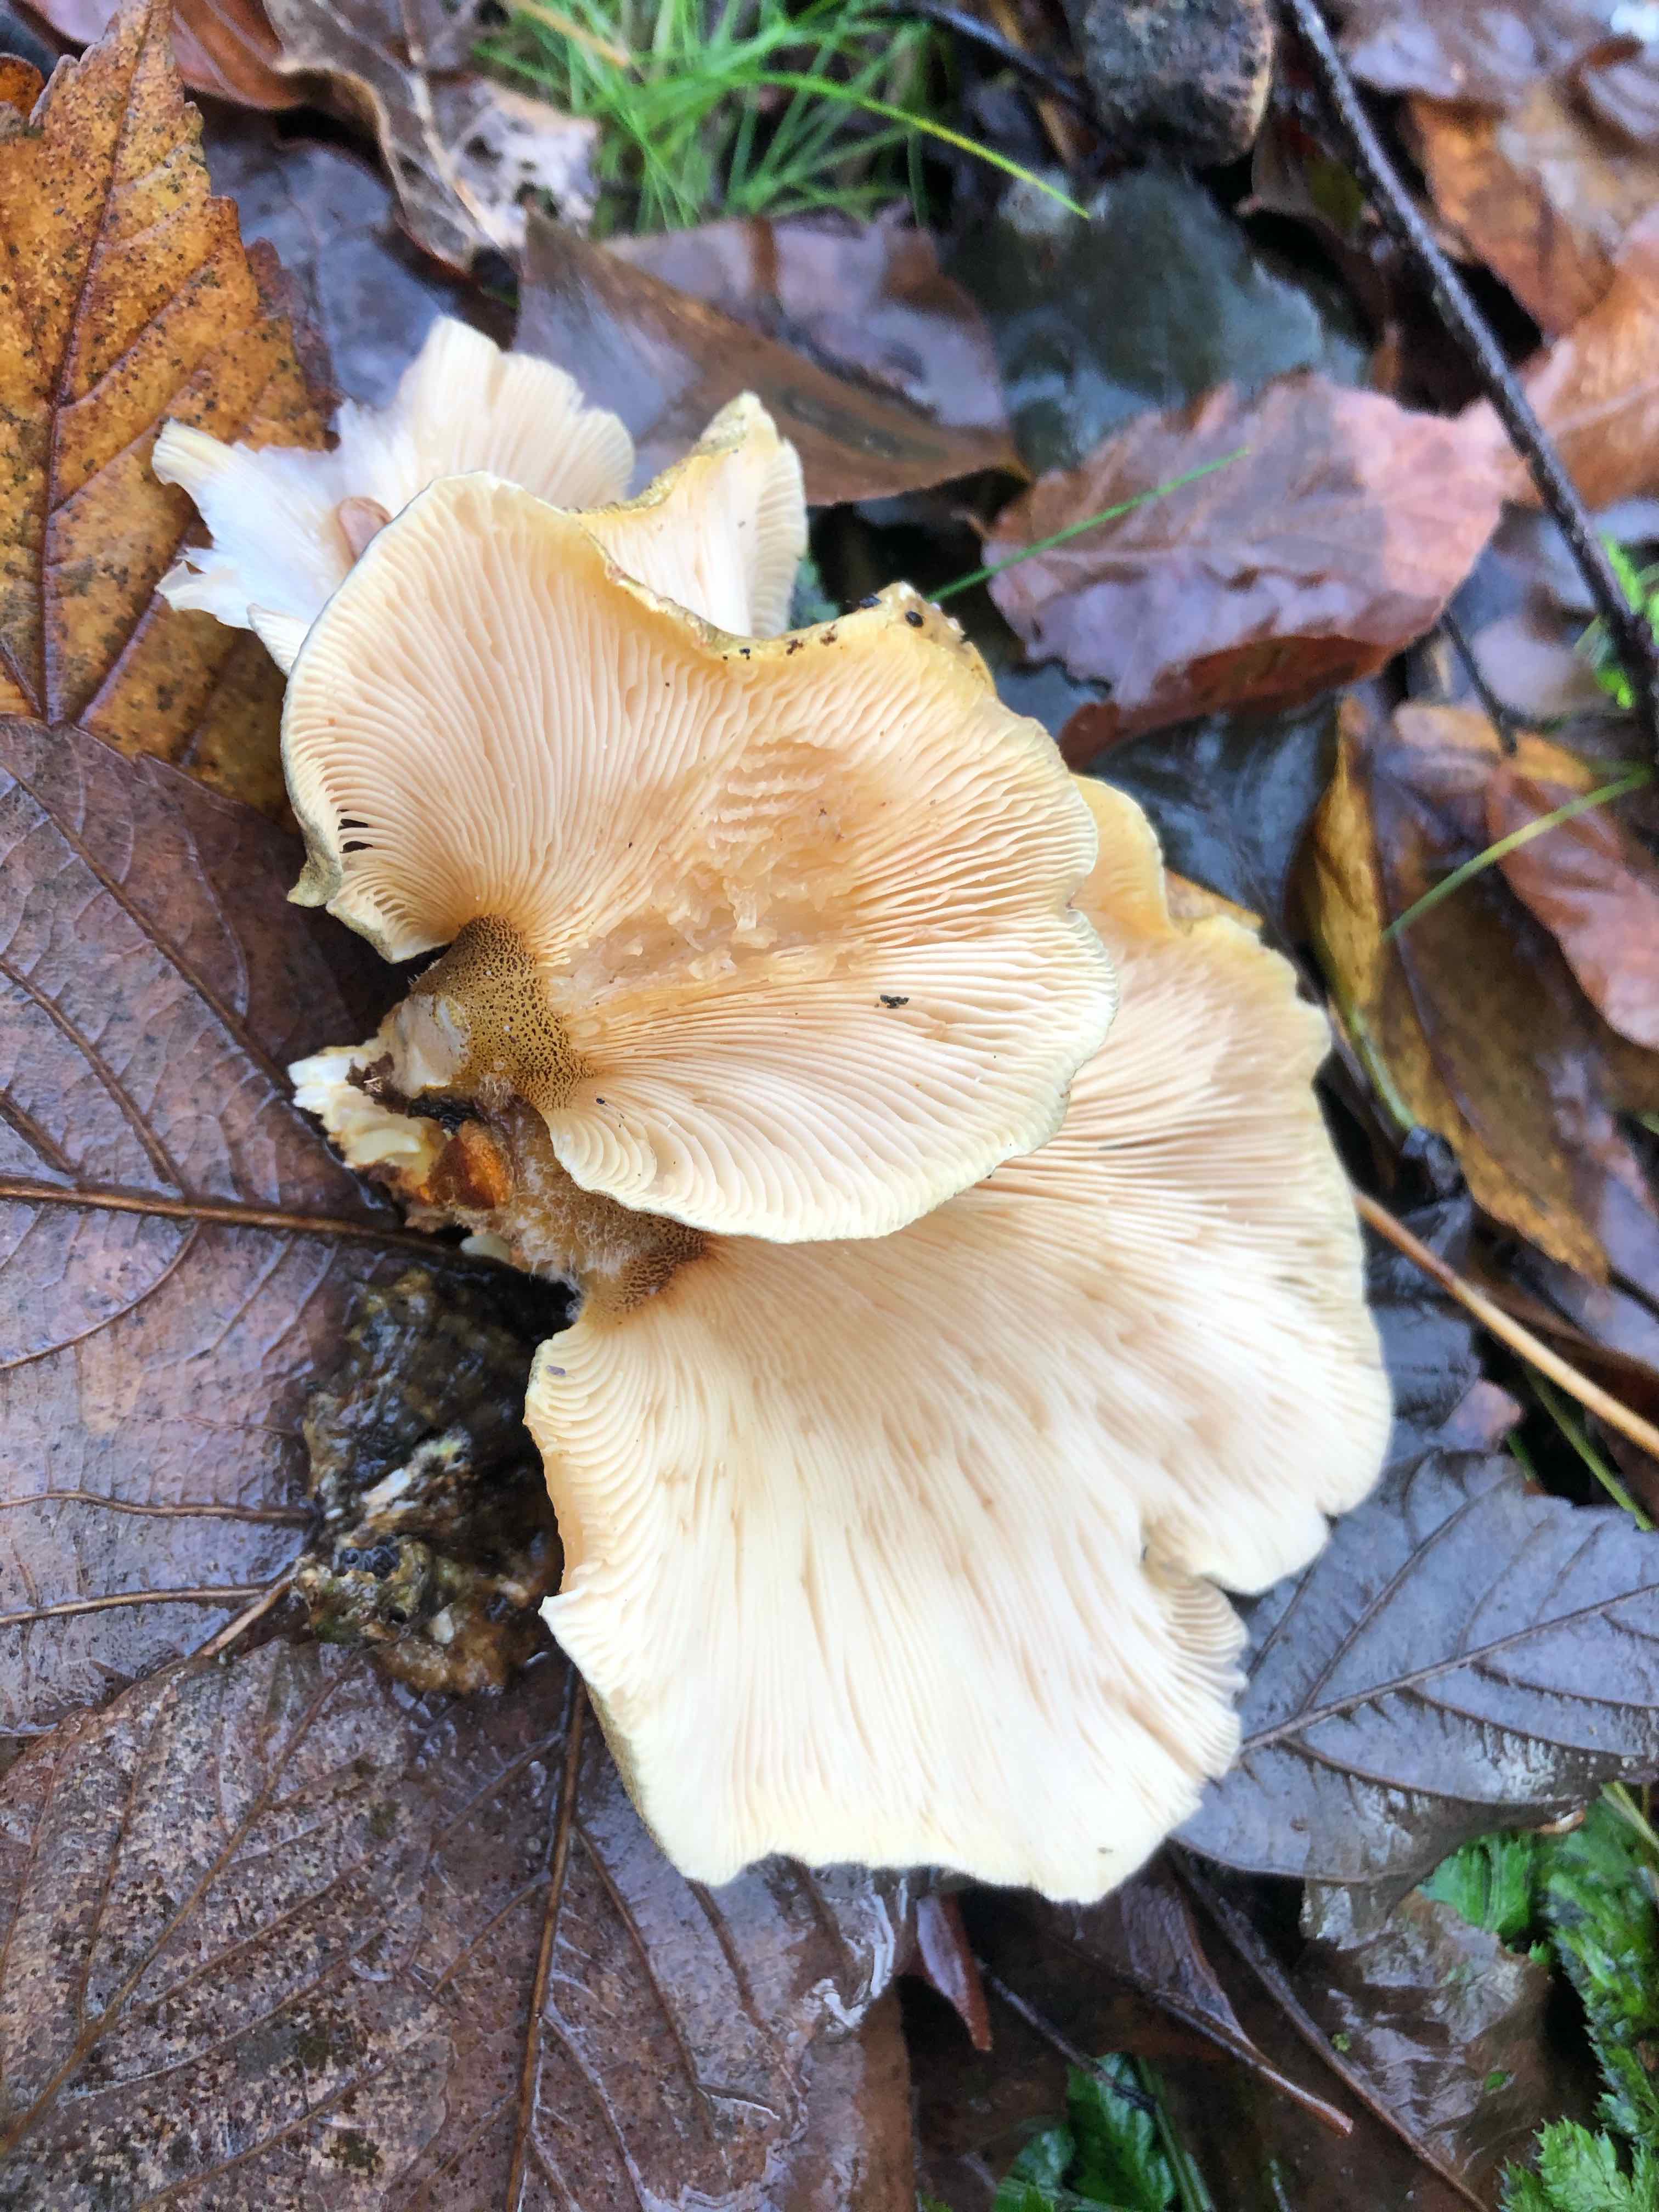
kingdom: Fungi
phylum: Basidiomycota
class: Agaricomycetes
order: Agaricales
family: Sarcomyxaceae
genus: Sarcomyxa
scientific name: Sarcomyxa serotina
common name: gummihat
